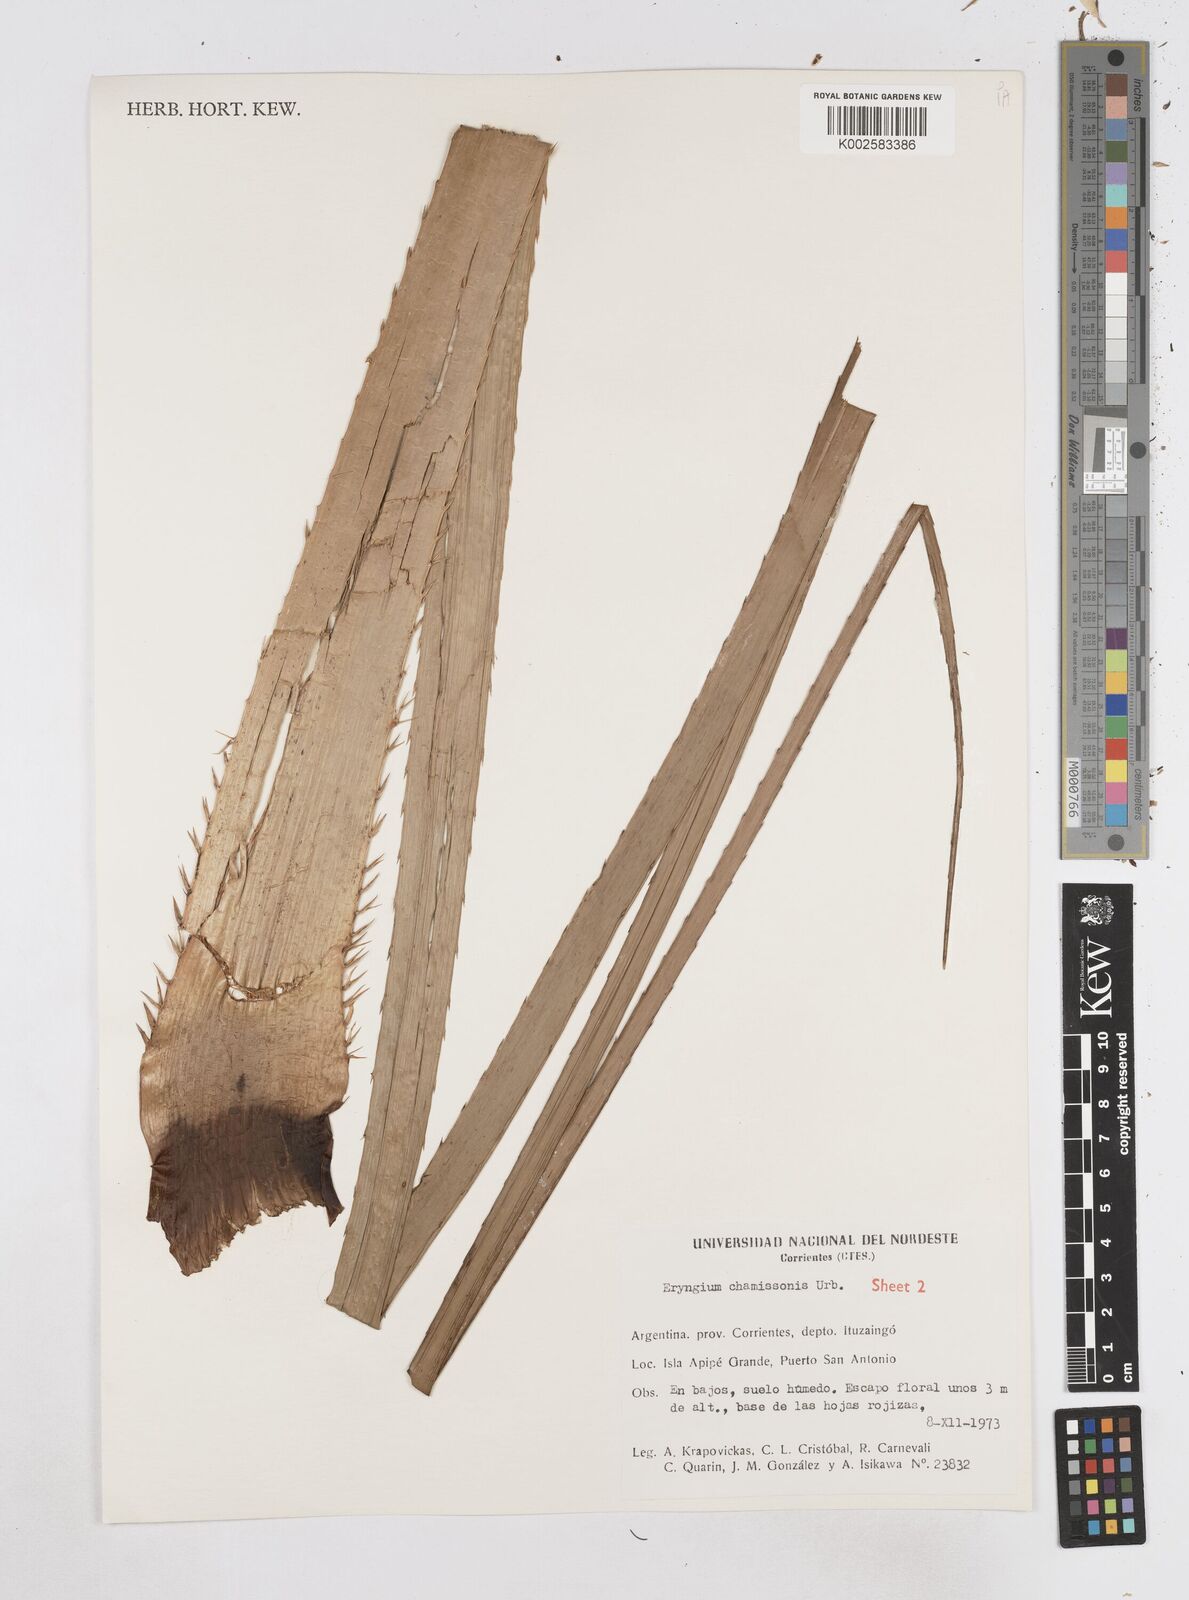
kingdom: Plantae
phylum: Tracheophyta
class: Magnoliopsida
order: Apiales
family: Apiaceae
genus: Eryngium
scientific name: Eryngium chamissonis
